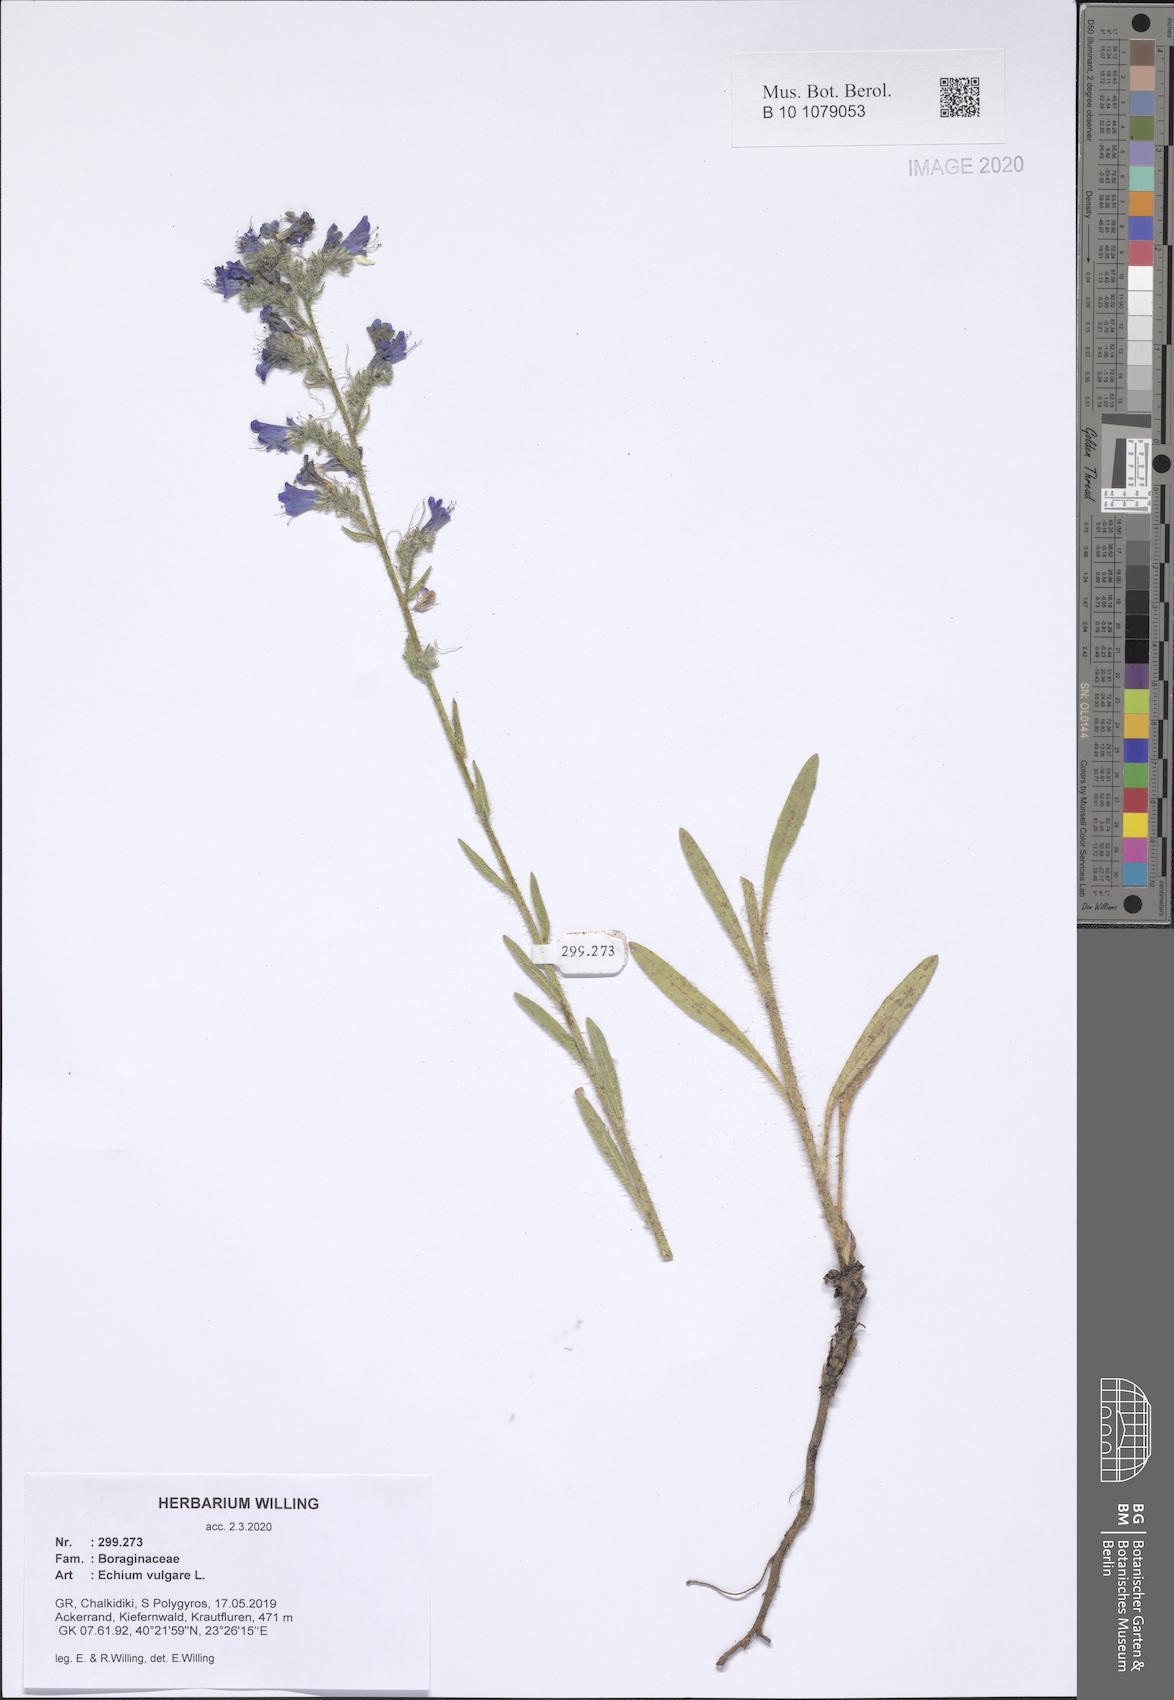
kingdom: Plantae
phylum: Tracheophyta
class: Magnoliopsida
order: Boraginales
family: Boraginaceae
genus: Echium
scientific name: Echium vulgare
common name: Common viper's bugloss
